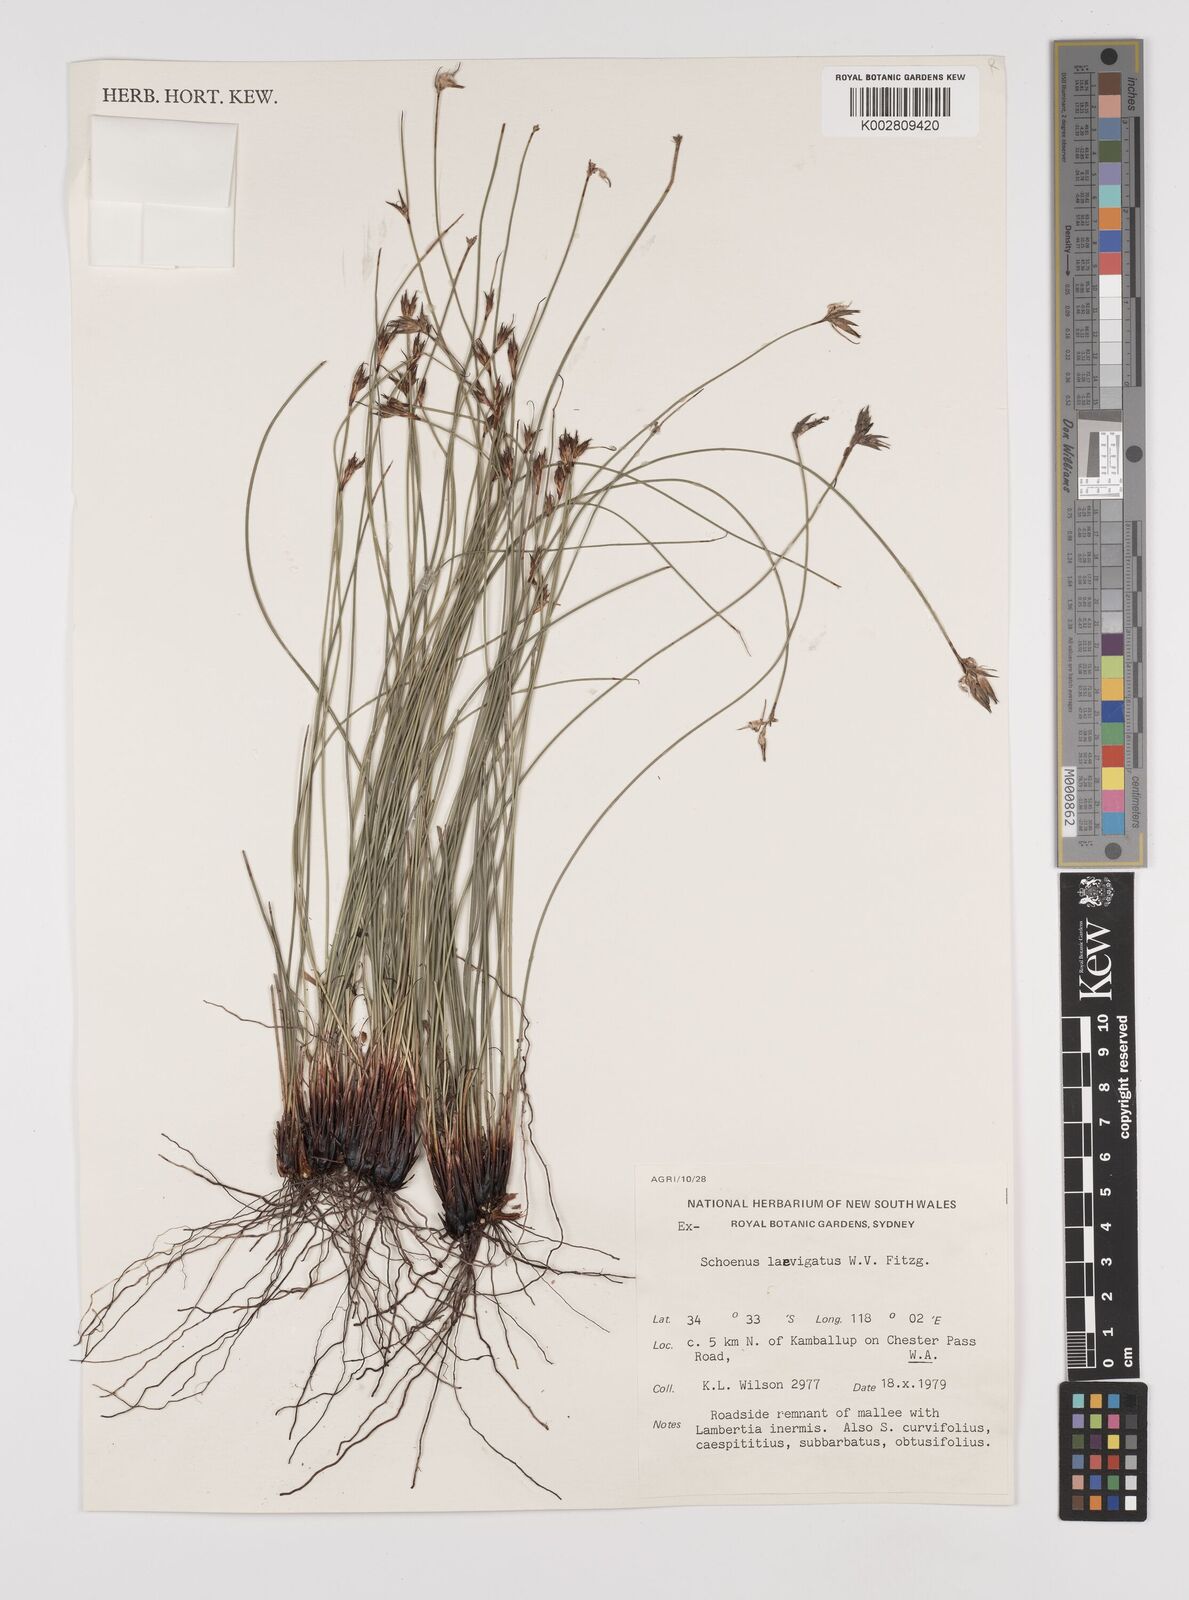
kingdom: Plantae
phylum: Tracheophyta
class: Liliopsida
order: Poales
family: Cyperaceae
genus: Schoenus
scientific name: Schoenus laevigatus
